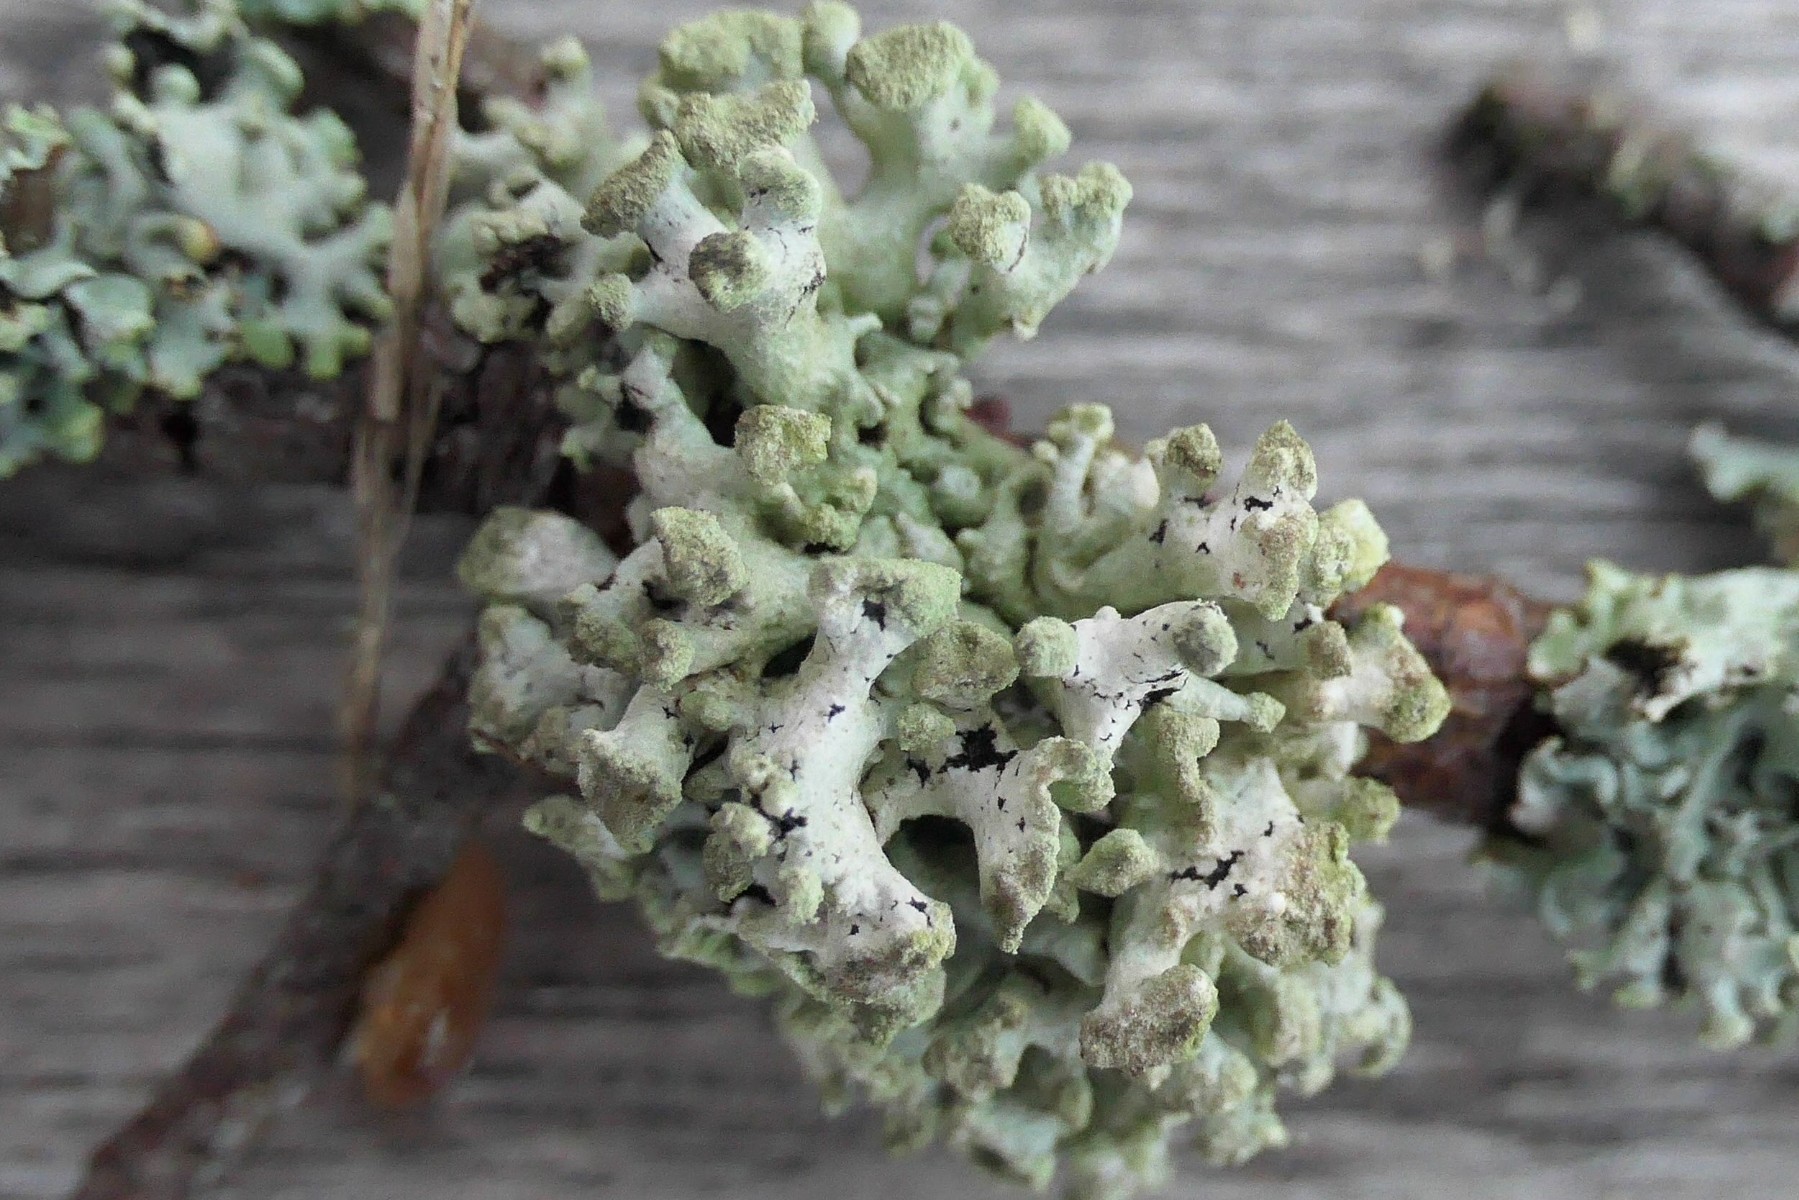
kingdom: Fungi
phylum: Ascomycota
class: Lecanoromycetes
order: Lecanorales
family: Parmeliaceae
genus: Hypogymnia
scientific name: Hypogymnia tubulosa
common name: finger-kvistlav
